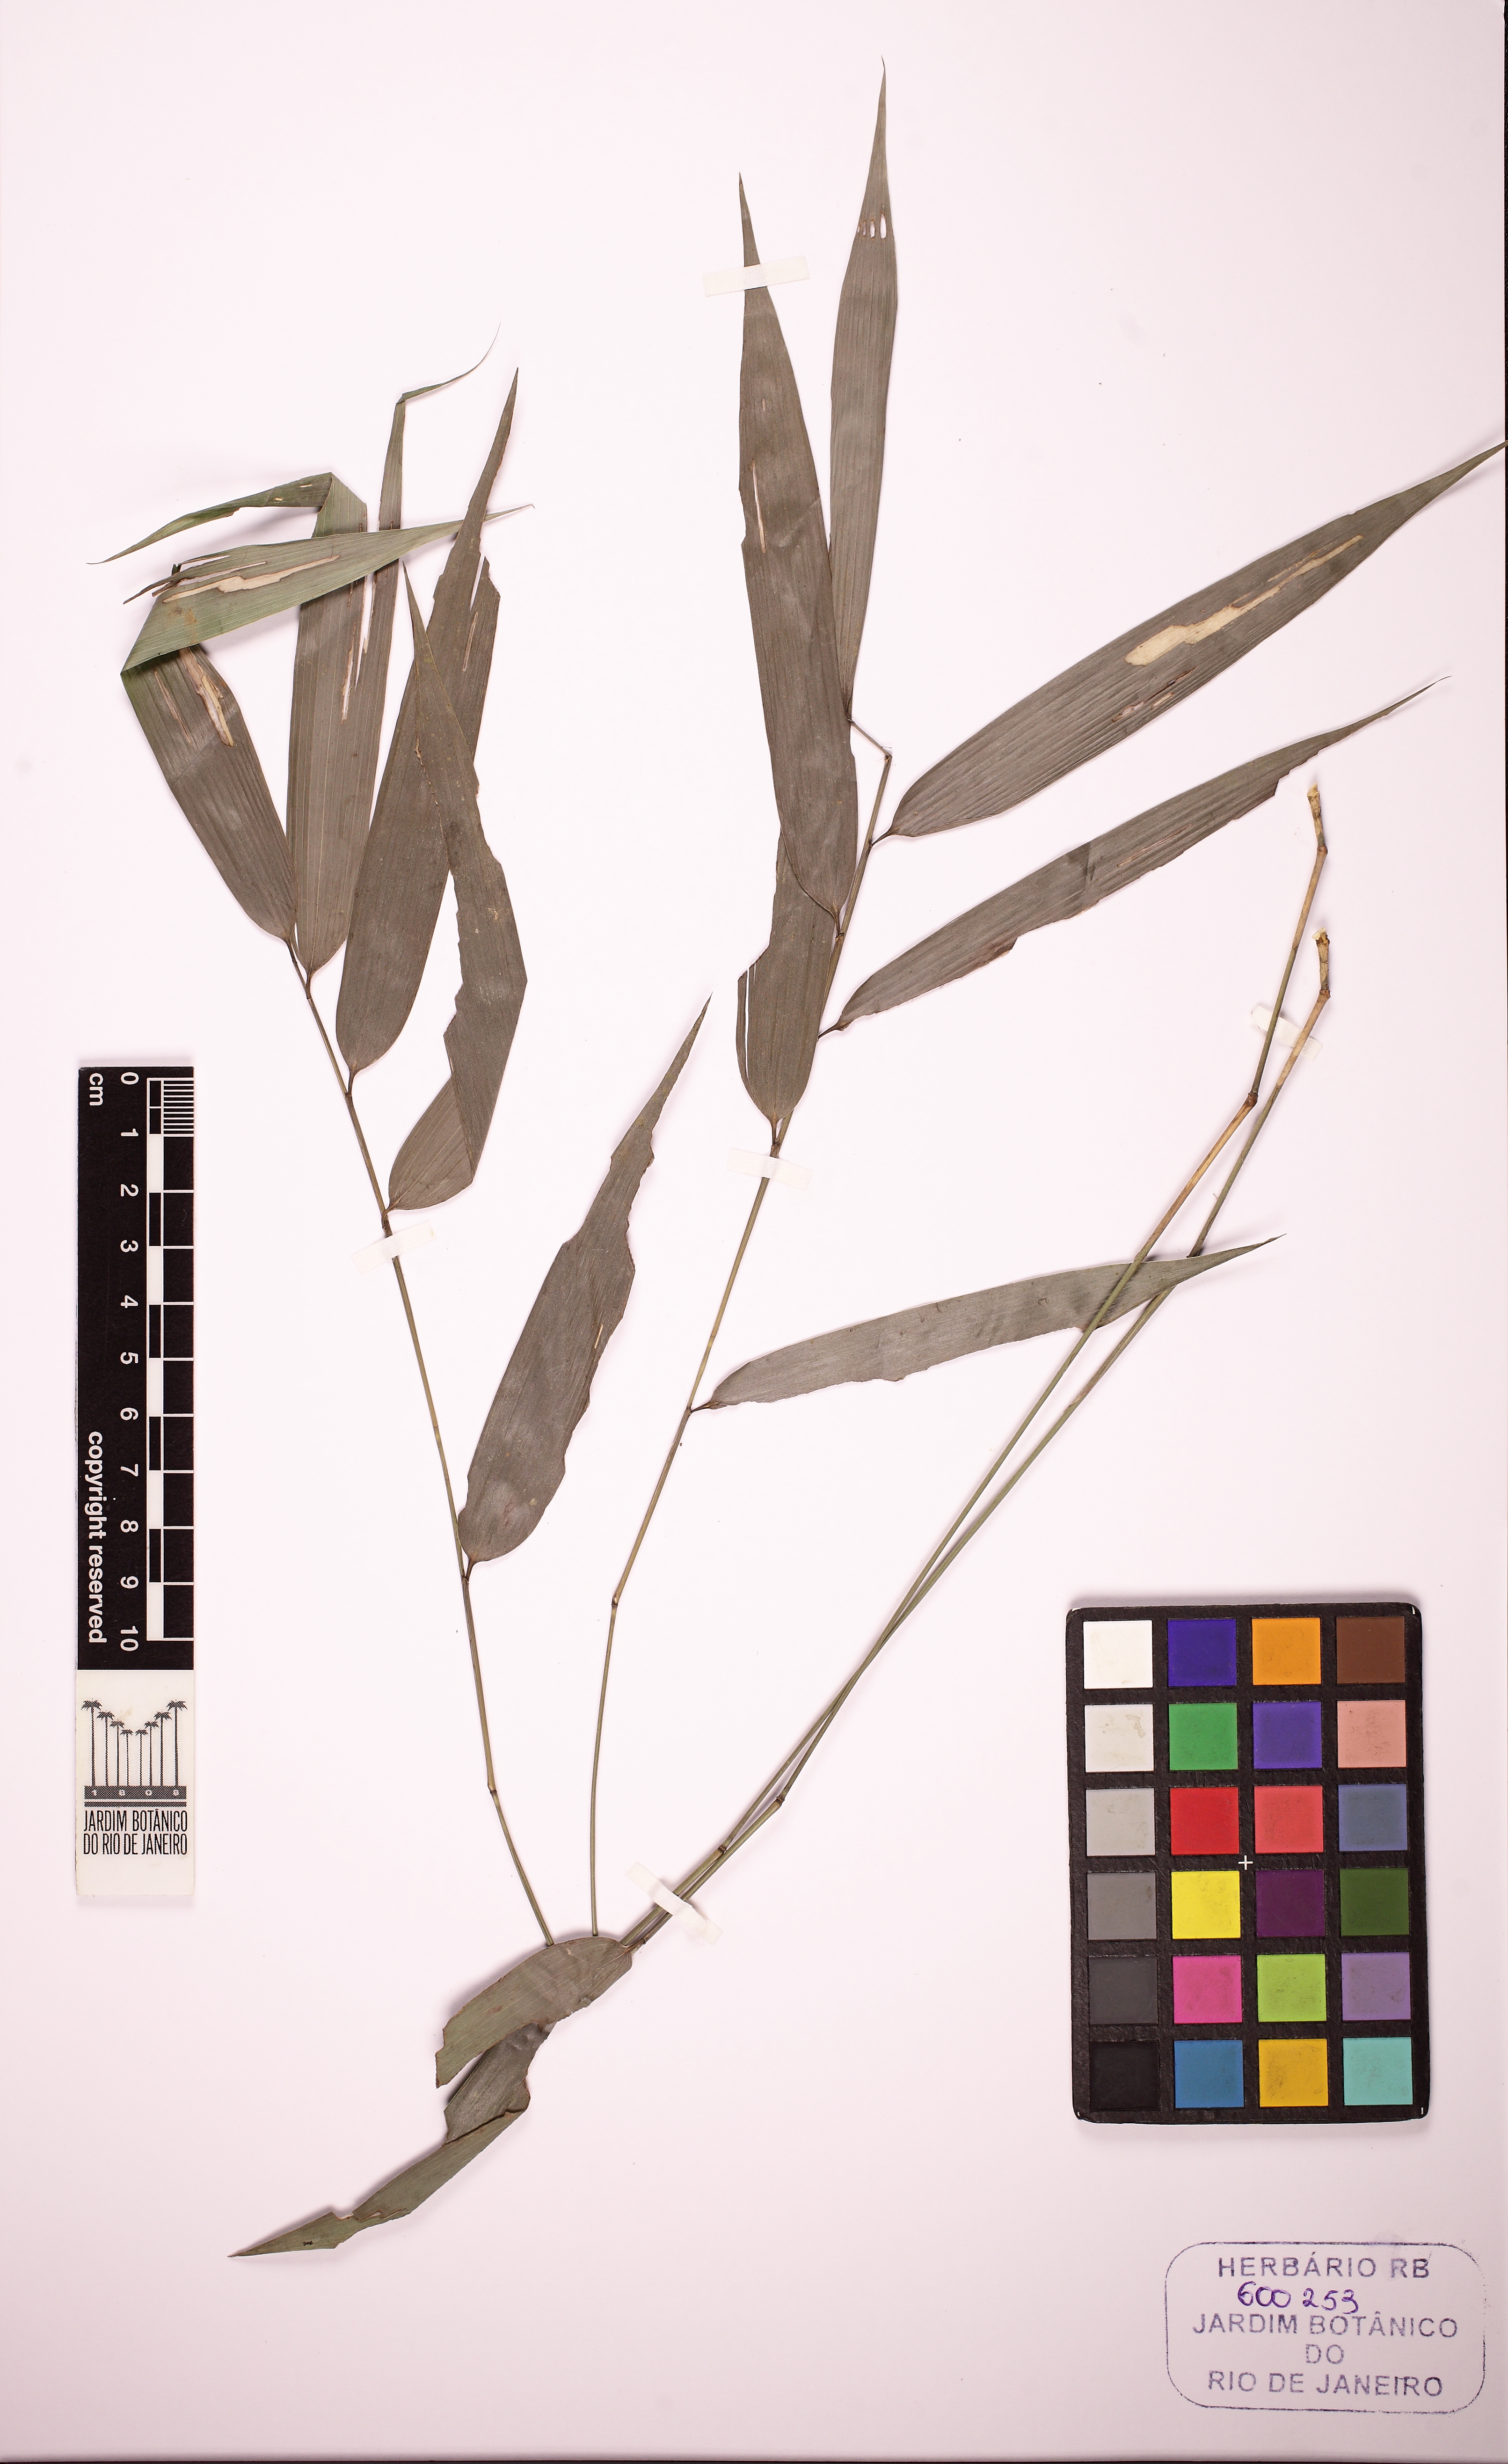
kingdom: Plantae
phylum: Tracheophyta
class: Liliopsida
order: Poales
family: Poaceae
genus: Merostachys
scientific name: Merostachys
